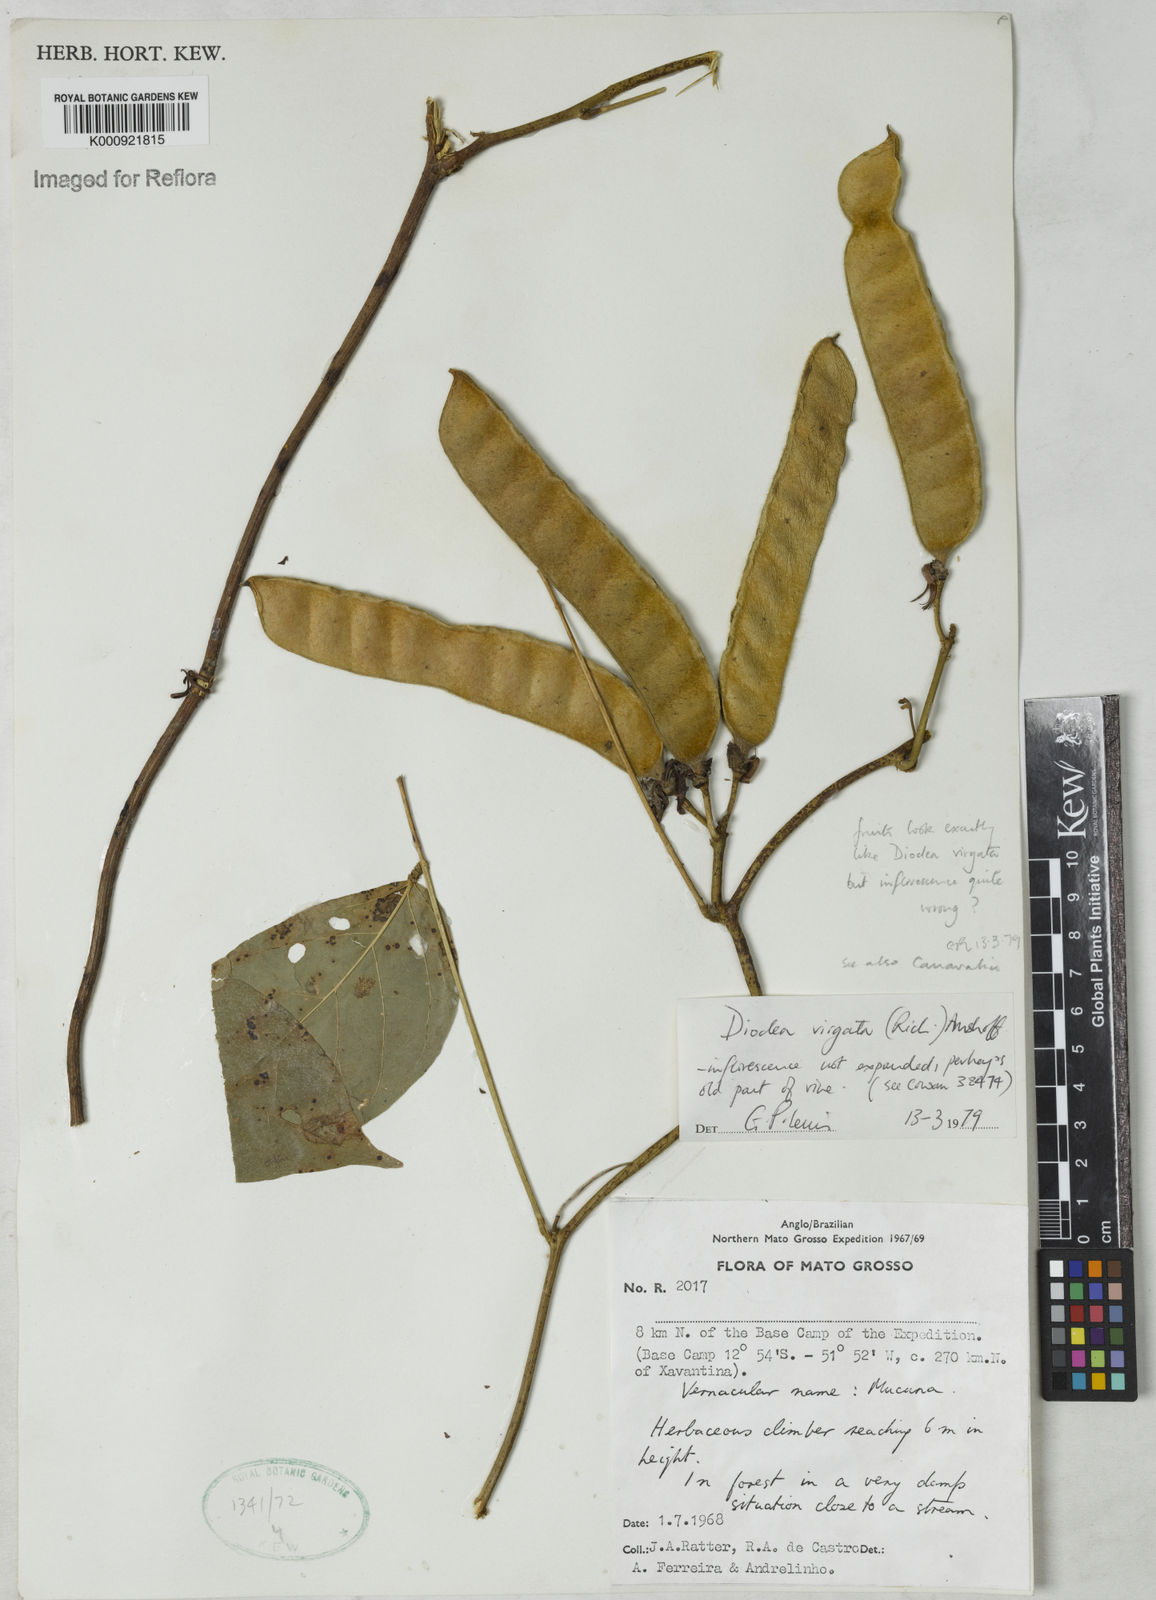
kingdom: Plantae
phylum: Tracheophyta
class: Magnoliopsida
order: Fabales
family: Fabaceae
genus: Dioclea
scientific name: Dioclea virgata
